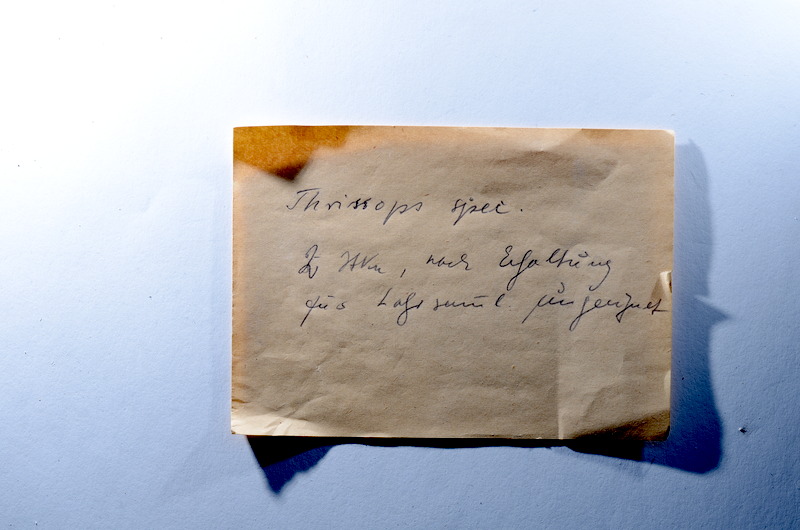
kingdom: Animalia
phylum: Chordata
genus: Thrissops
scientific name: Thrissops
